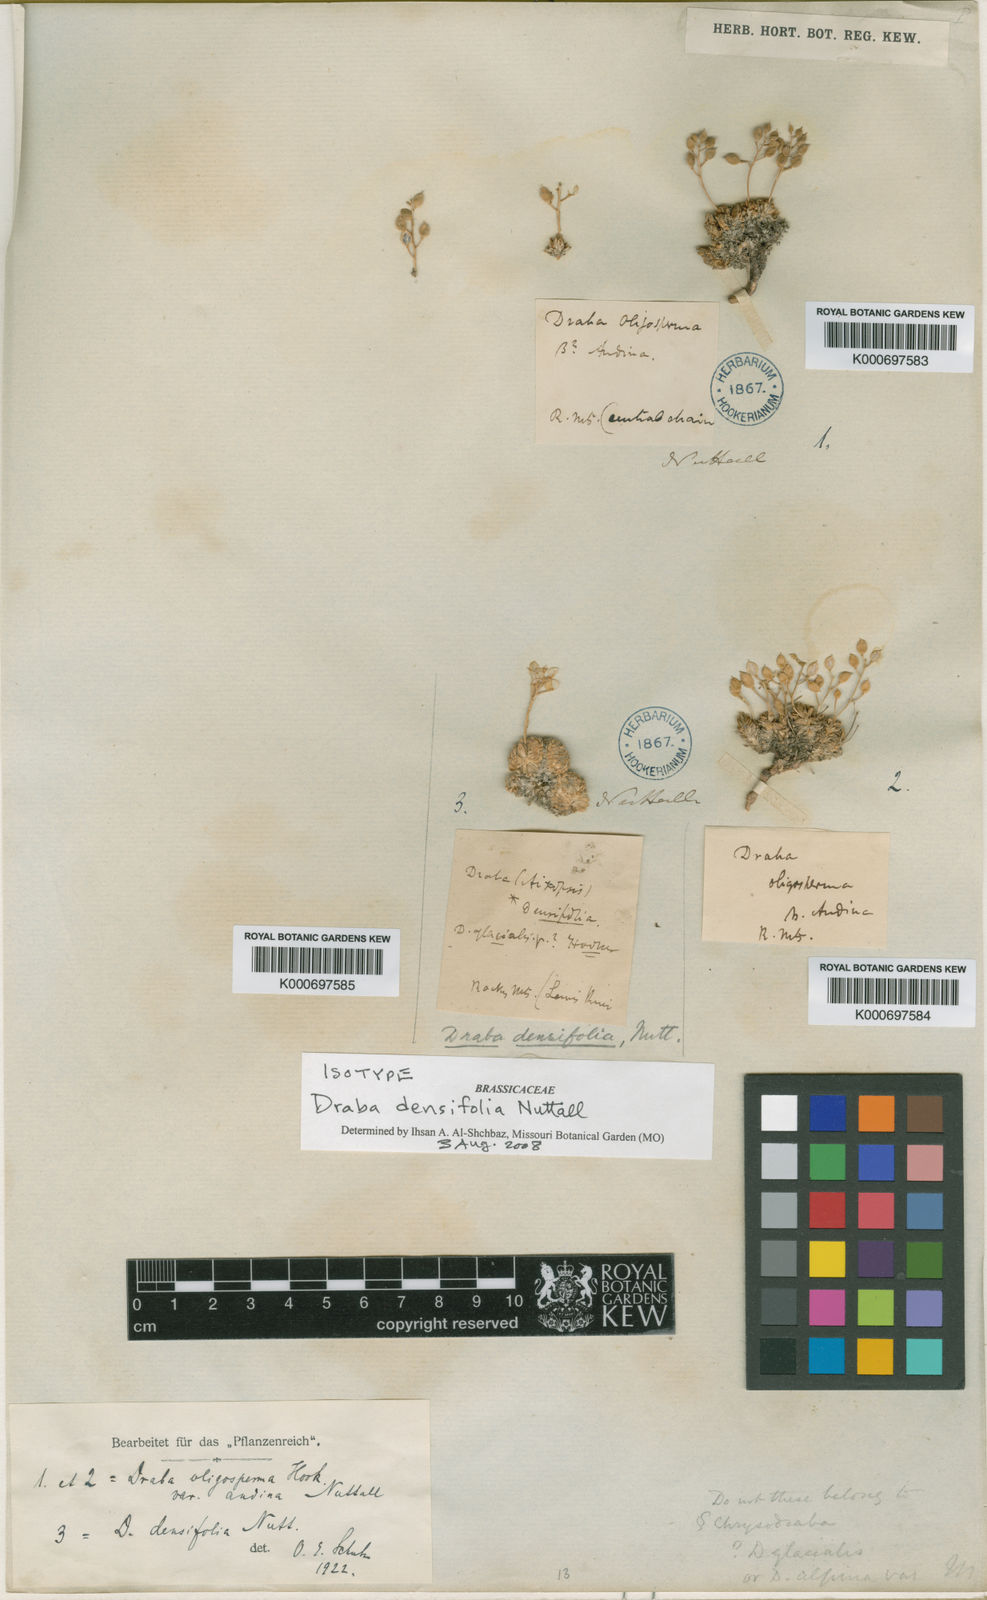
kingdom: Plantae
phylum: Tracheophyta
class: Magnoliopsida
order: Brassicales
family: Brassicaceae
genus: Draba
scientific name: Draba densifolia
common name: Nuttall's draba
